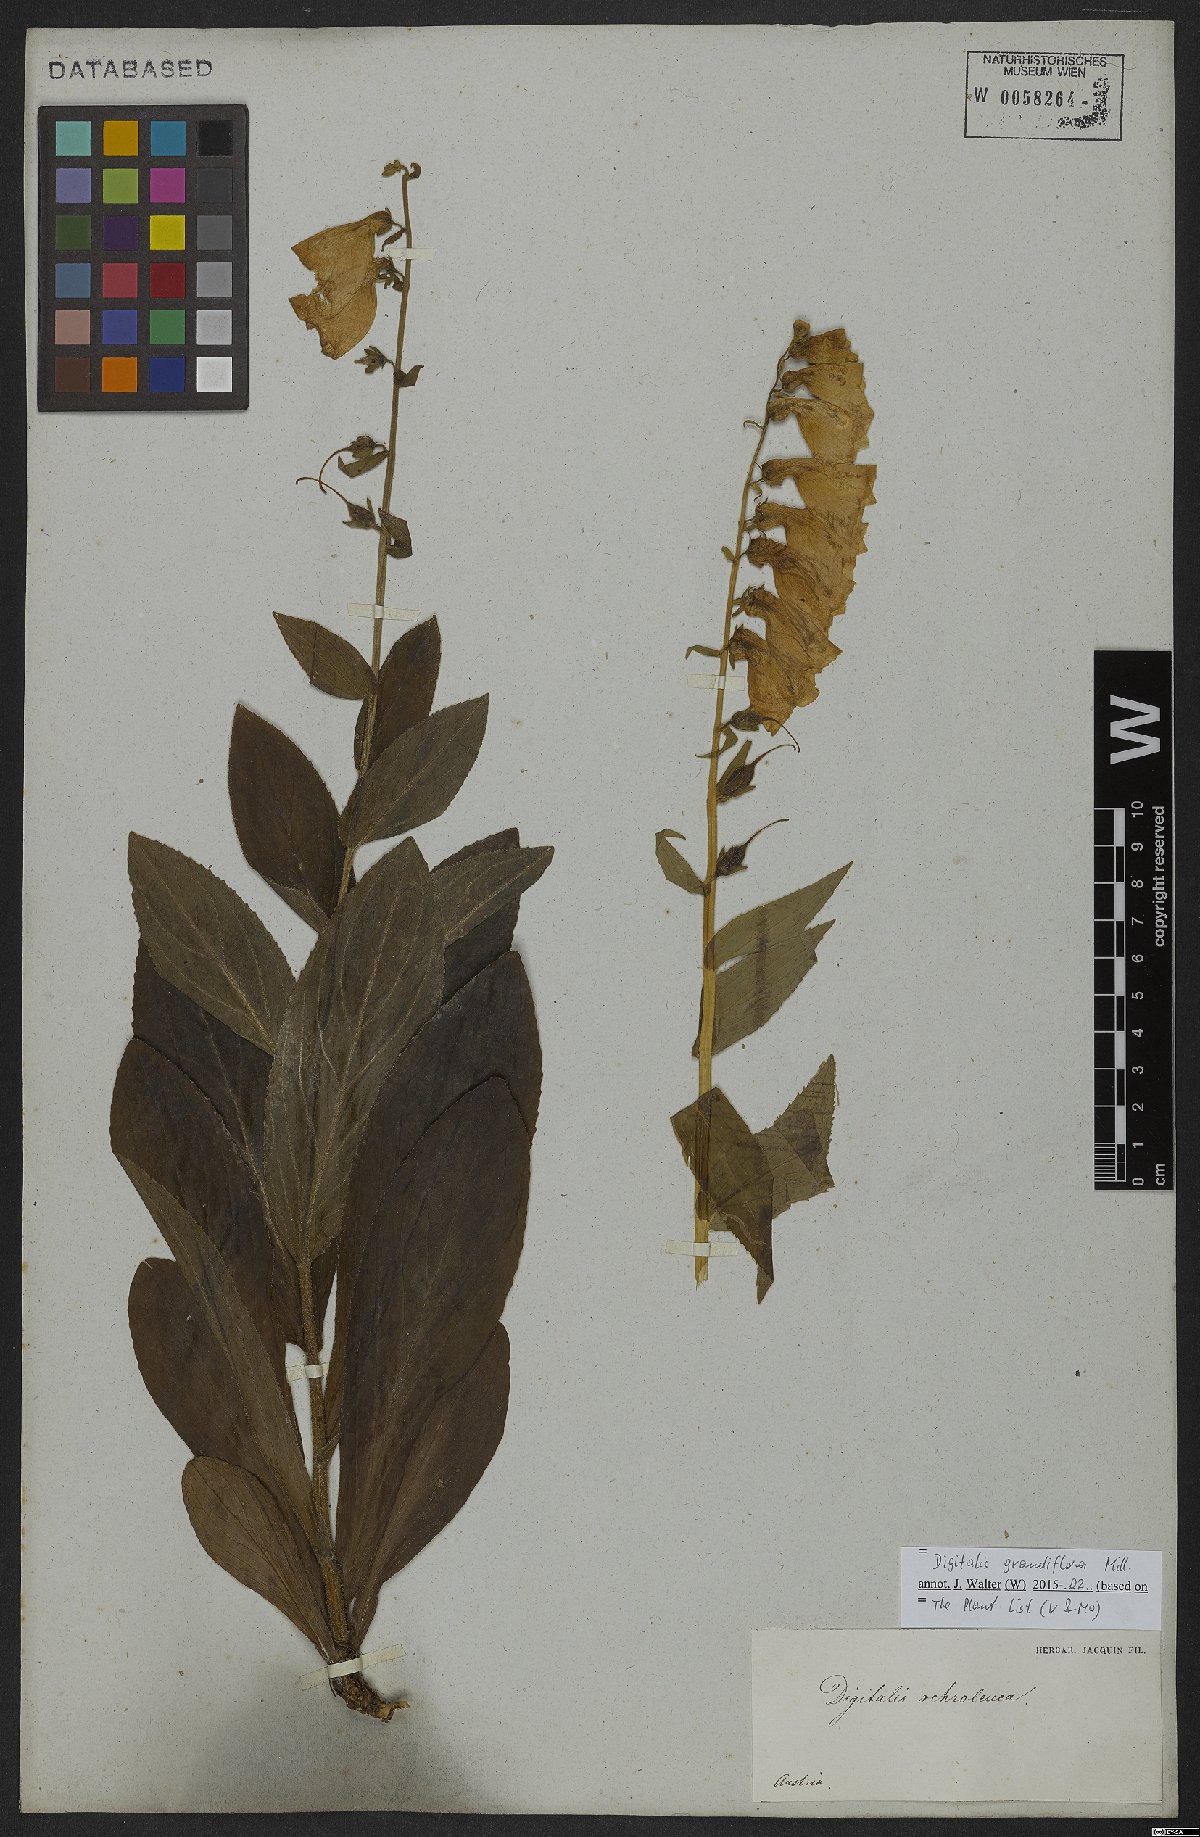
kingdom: Plantae
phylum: Tracheophyta
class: Magnoliopsida
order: Lamiales
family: Plantaginaceae
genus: Digitalis
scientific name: Digitalis grandiflora
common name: Yellow foxglove
